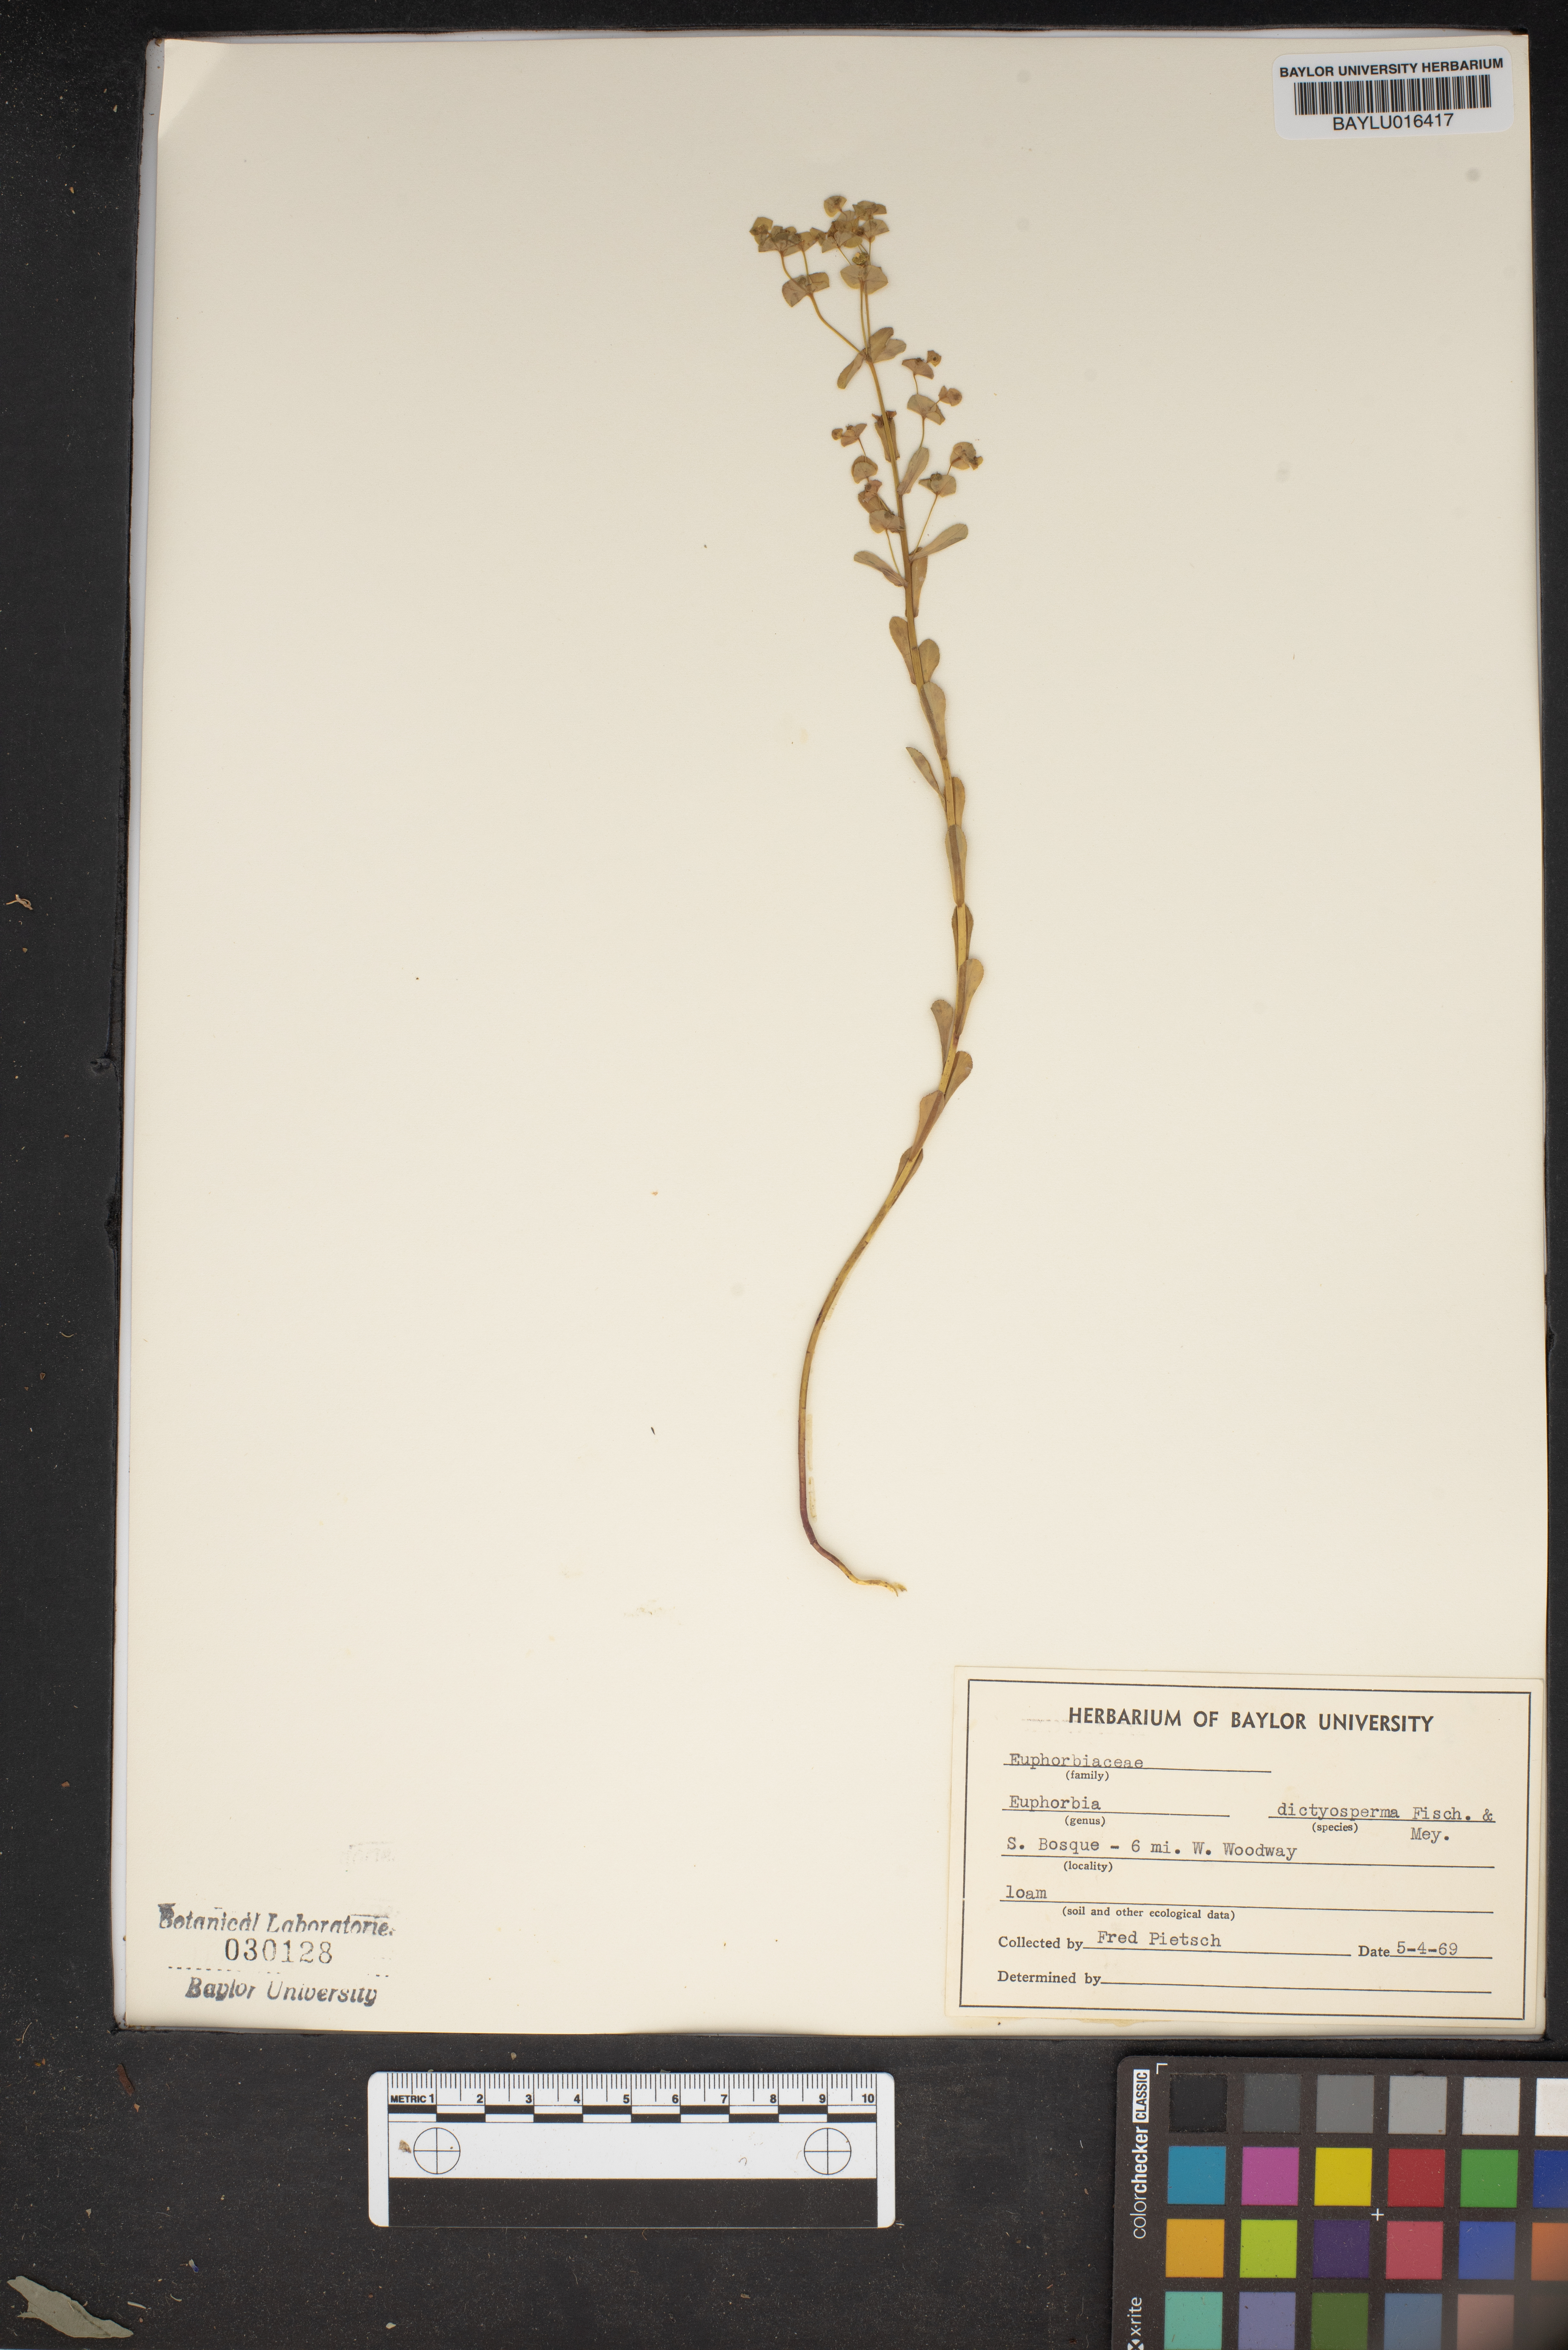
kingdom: Plantae
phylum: Tracheophyta
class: Magnoliopsida
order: Malpighiales
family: Euphorbiaceae
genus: Euphorbia
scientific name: Euphorbia spathulata
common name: Blunt spurge
